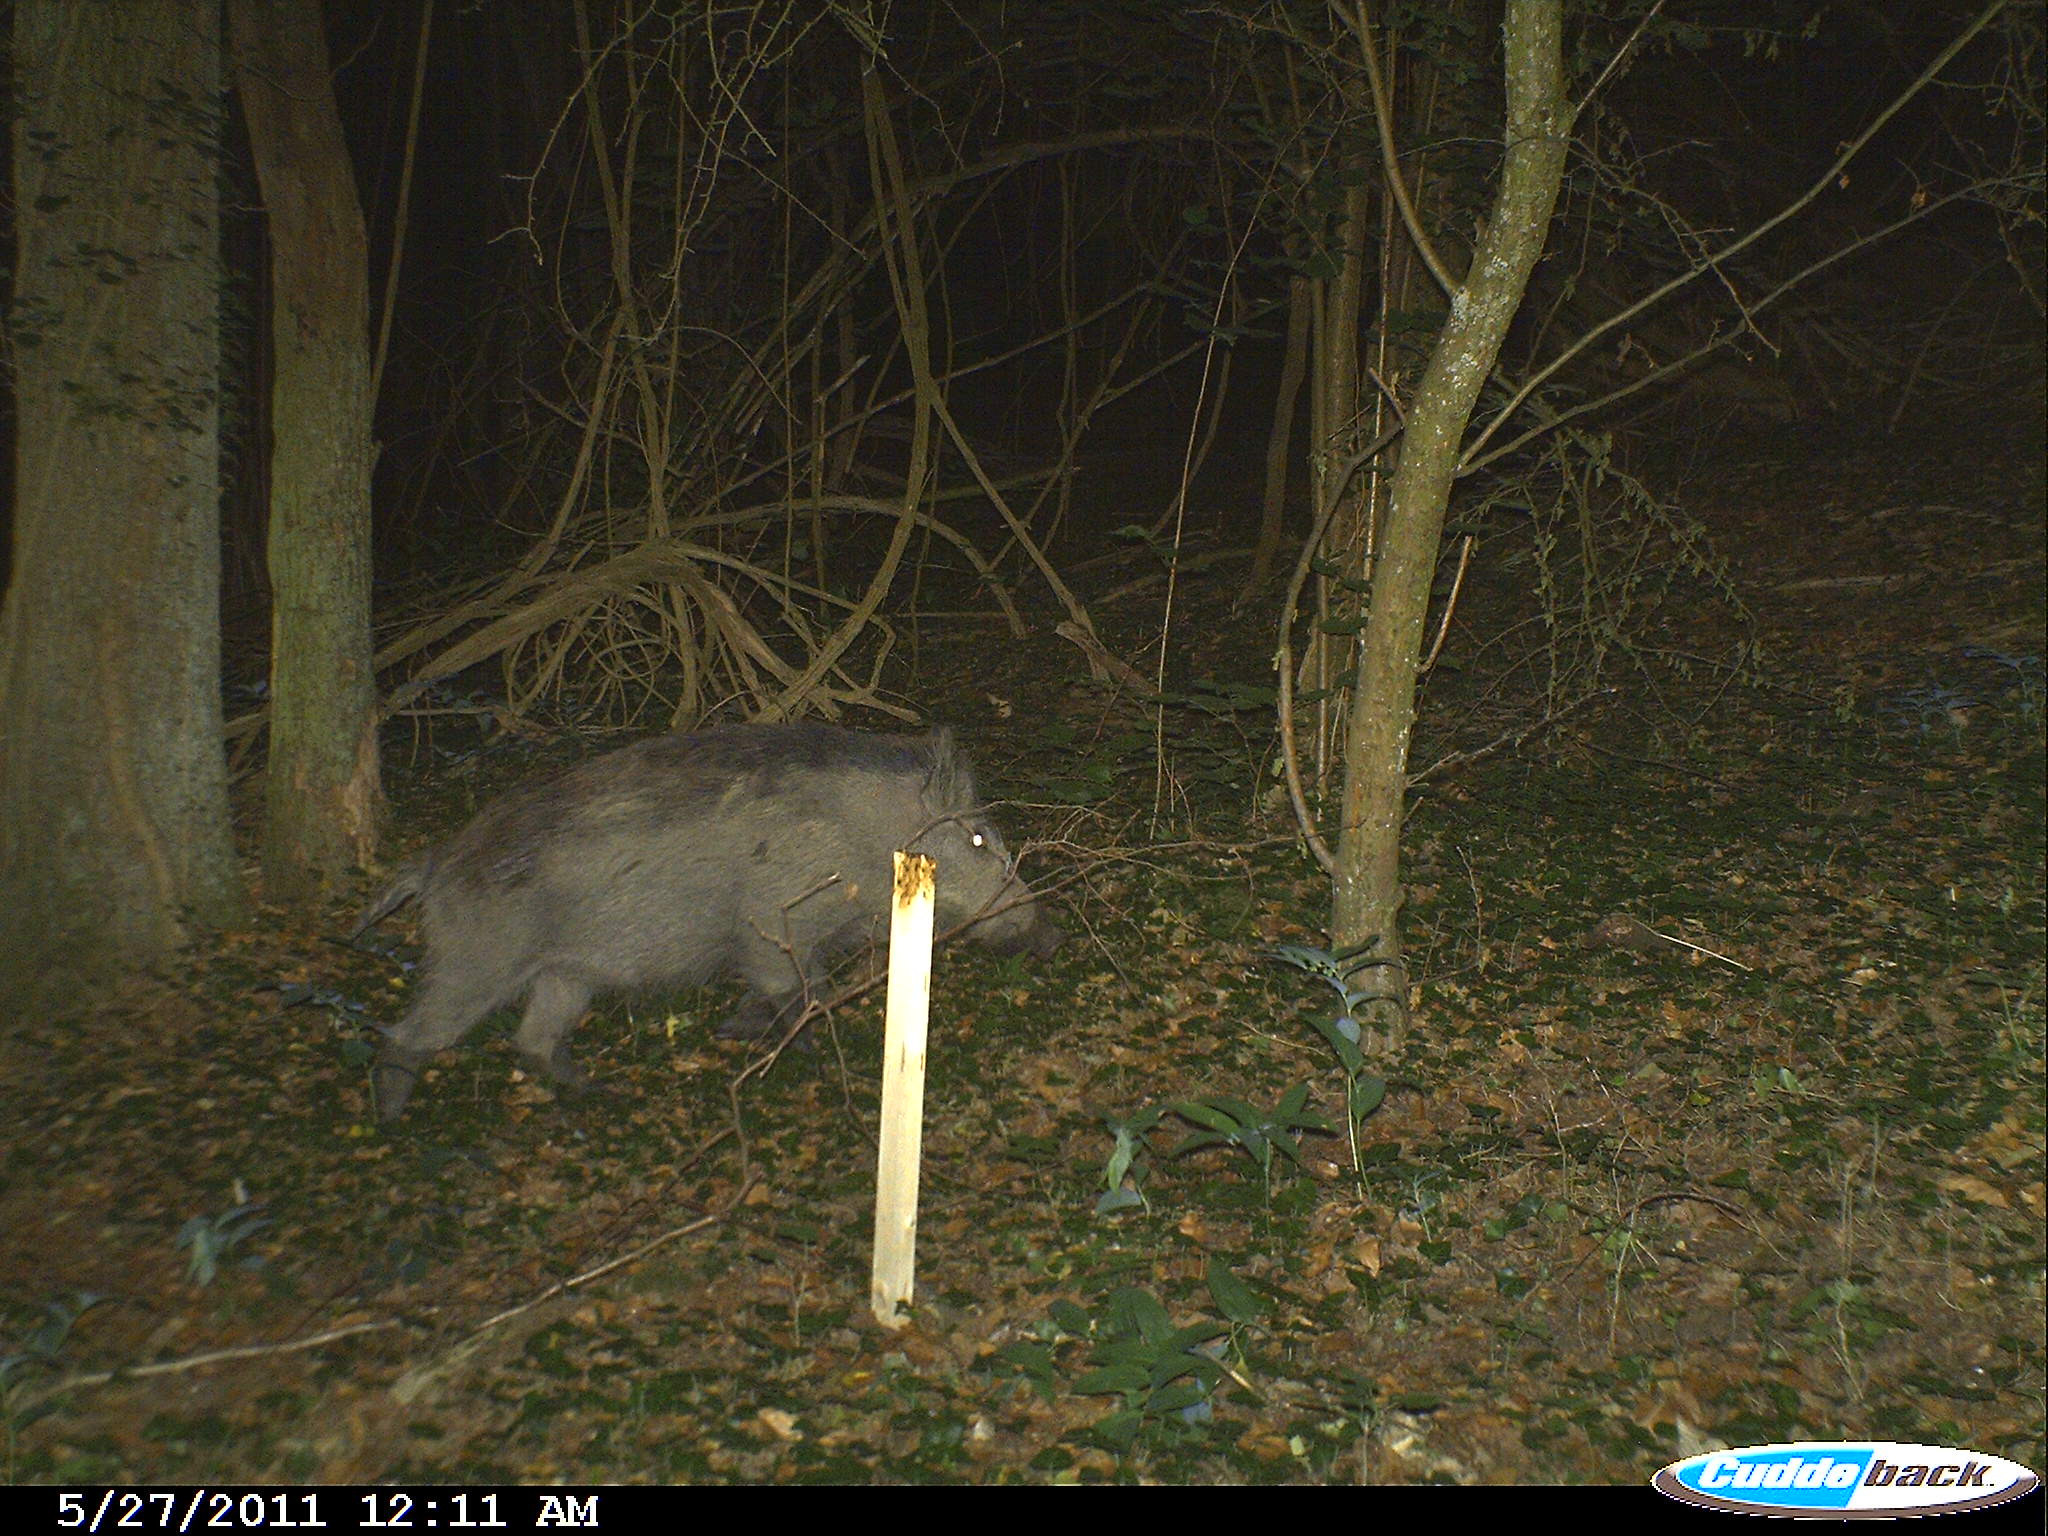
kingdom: Animalia
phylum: Chordata
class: Mammalia
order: Artiodactyla
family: Suidae
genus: Sus
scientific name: Sus scrofa
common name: Wild boar
